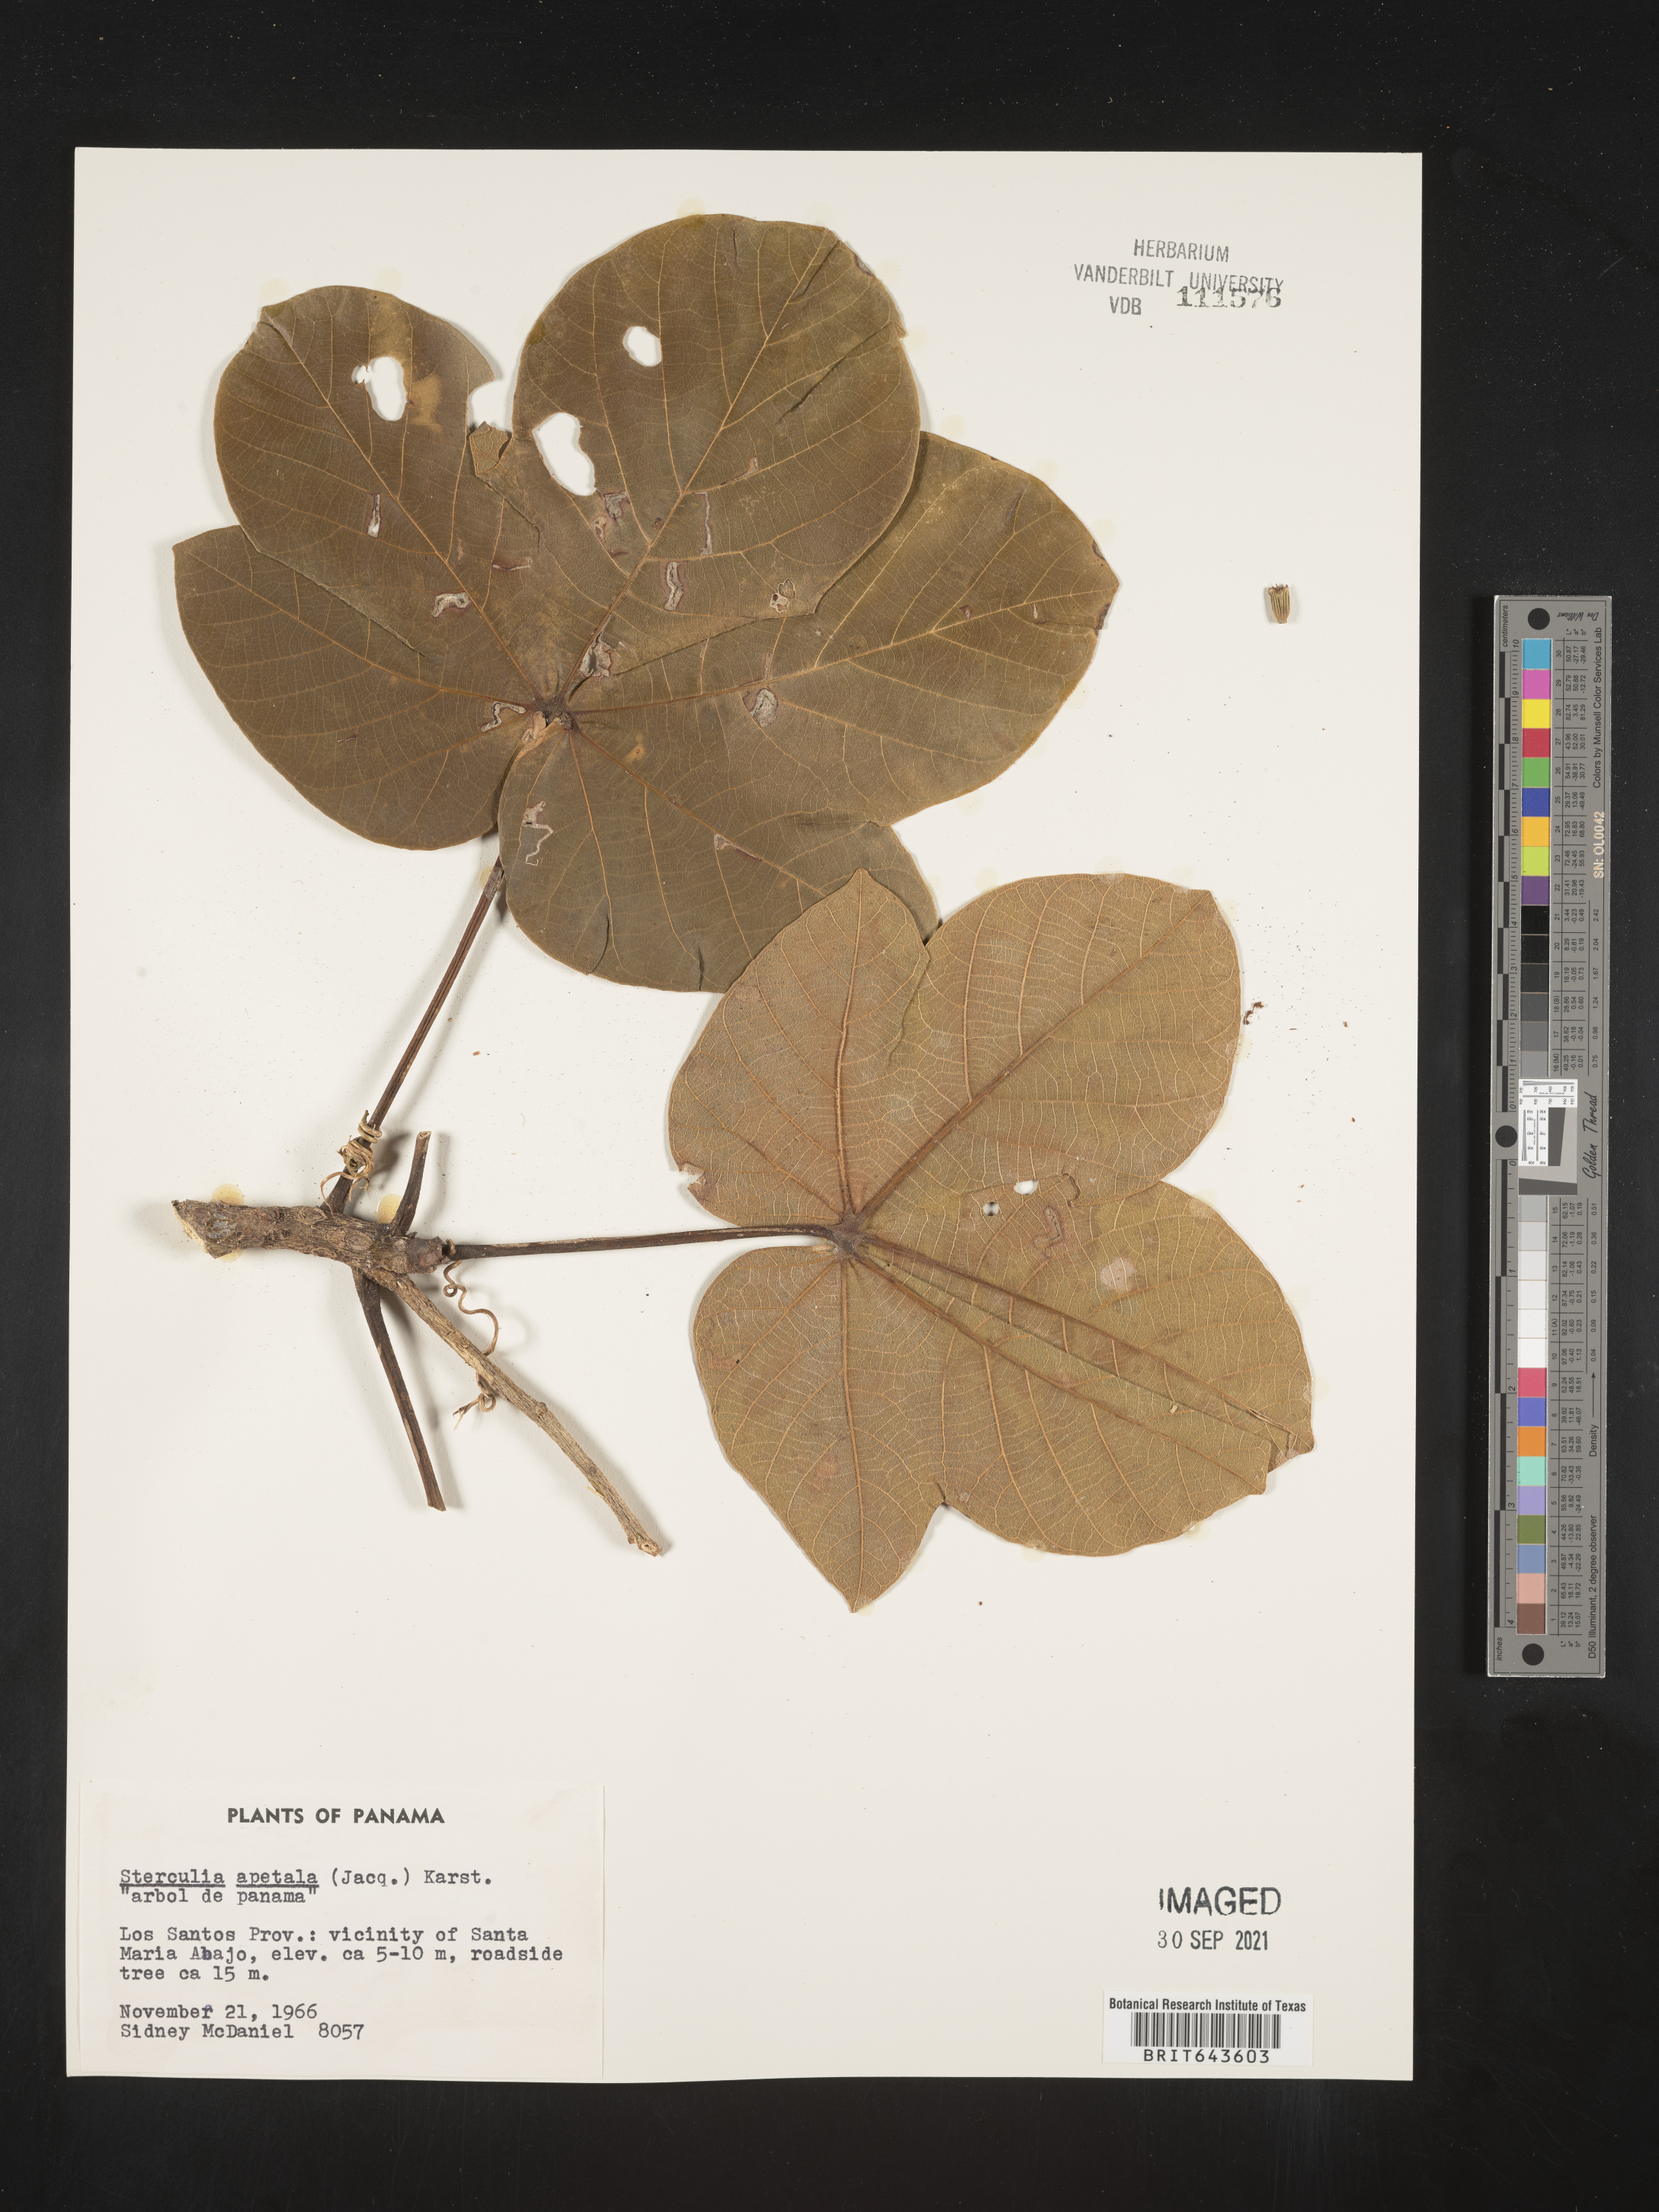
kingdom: Plantae
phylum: Tracheophyta
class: Magnoliopsida
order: Malvales
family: Malvaceae
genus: Sterculia
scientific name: Sterculia
